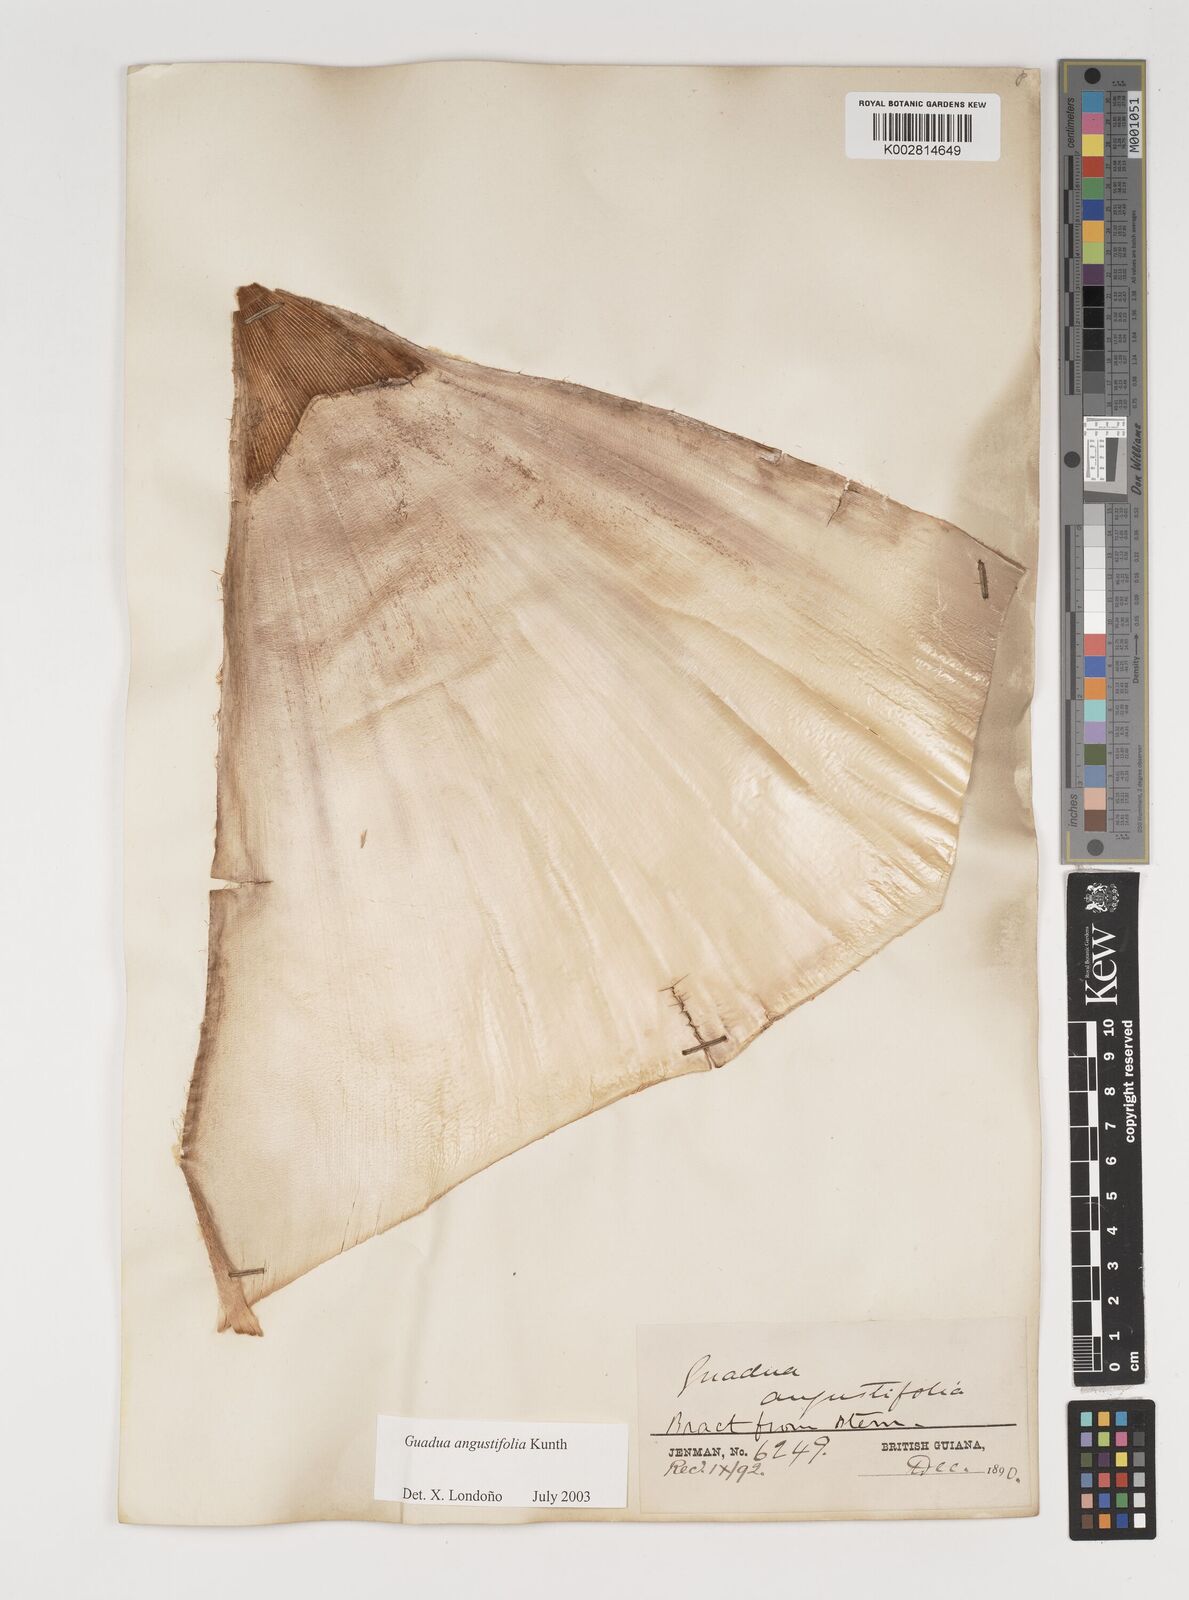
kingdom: Plantae
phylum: Tracheophyta
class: Liliopsida
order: Poales
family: Poaceae
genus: Guadua
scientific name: Guadua angustifolia
